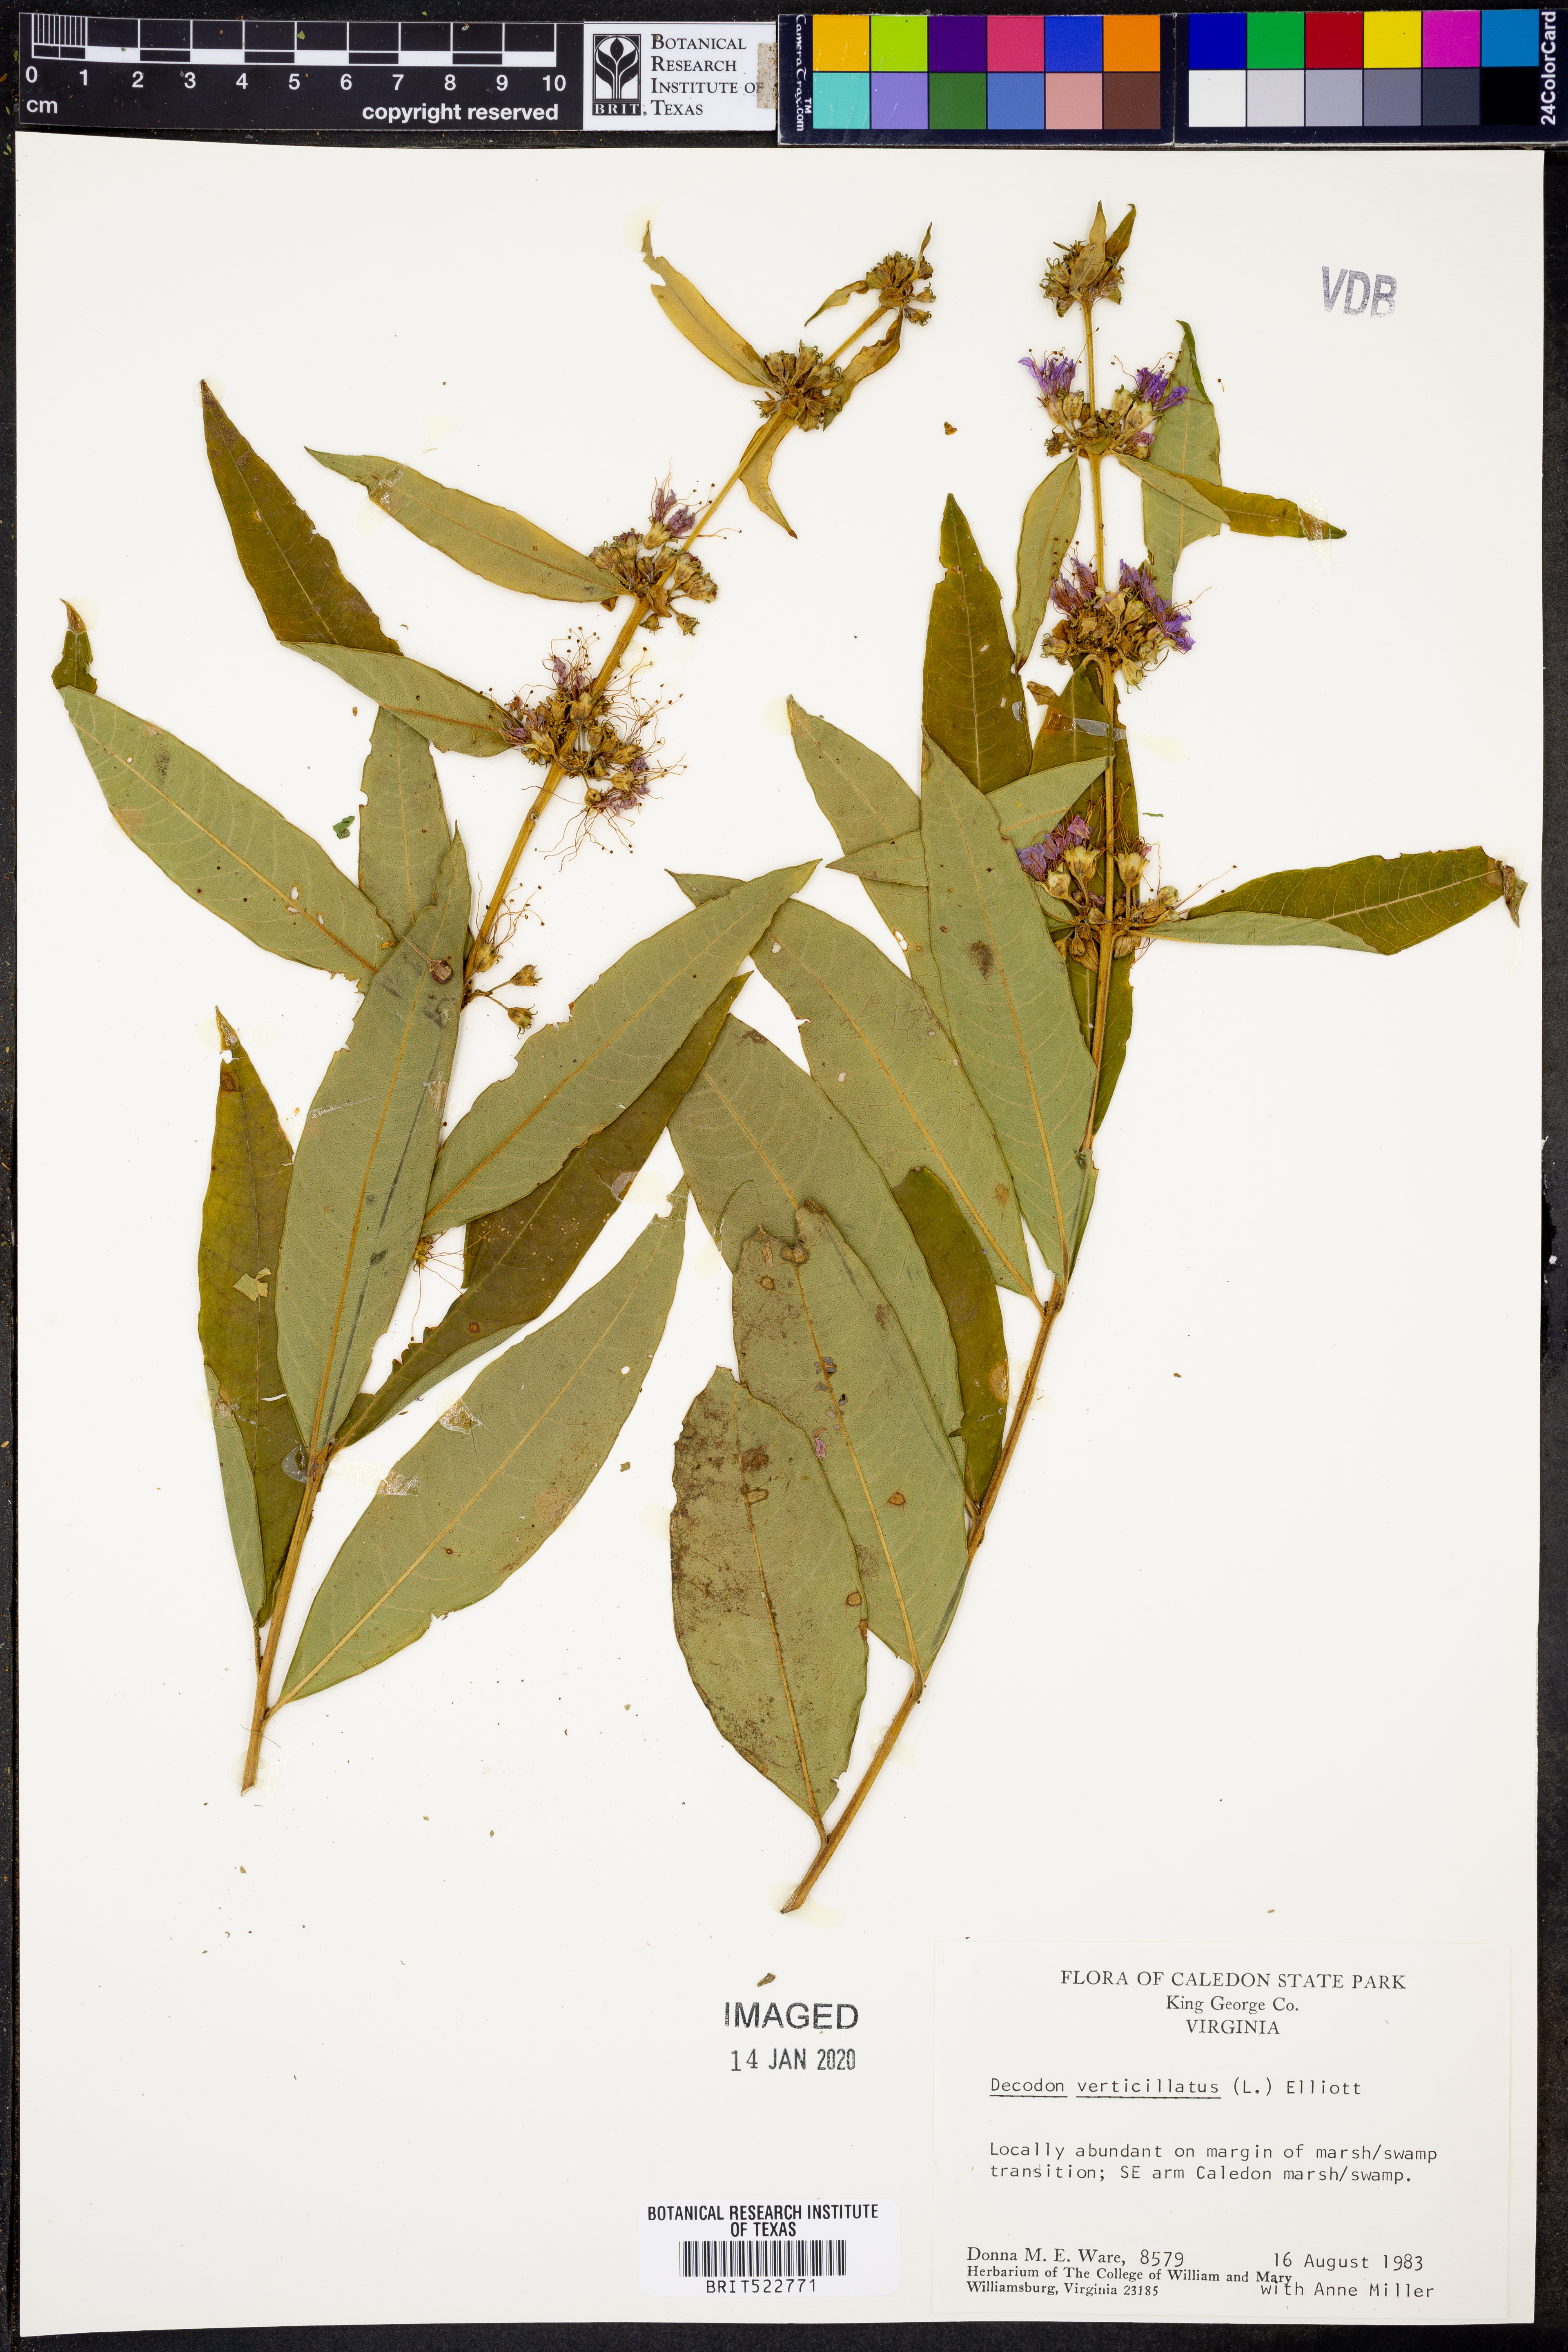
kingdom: Plantae
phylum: Tracheophyta
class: Magnoliopsida
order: Myrtales
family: Lythraceae
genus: Decodon
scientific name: Decodon verticillatus
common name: Hairy swamp loosestrife
